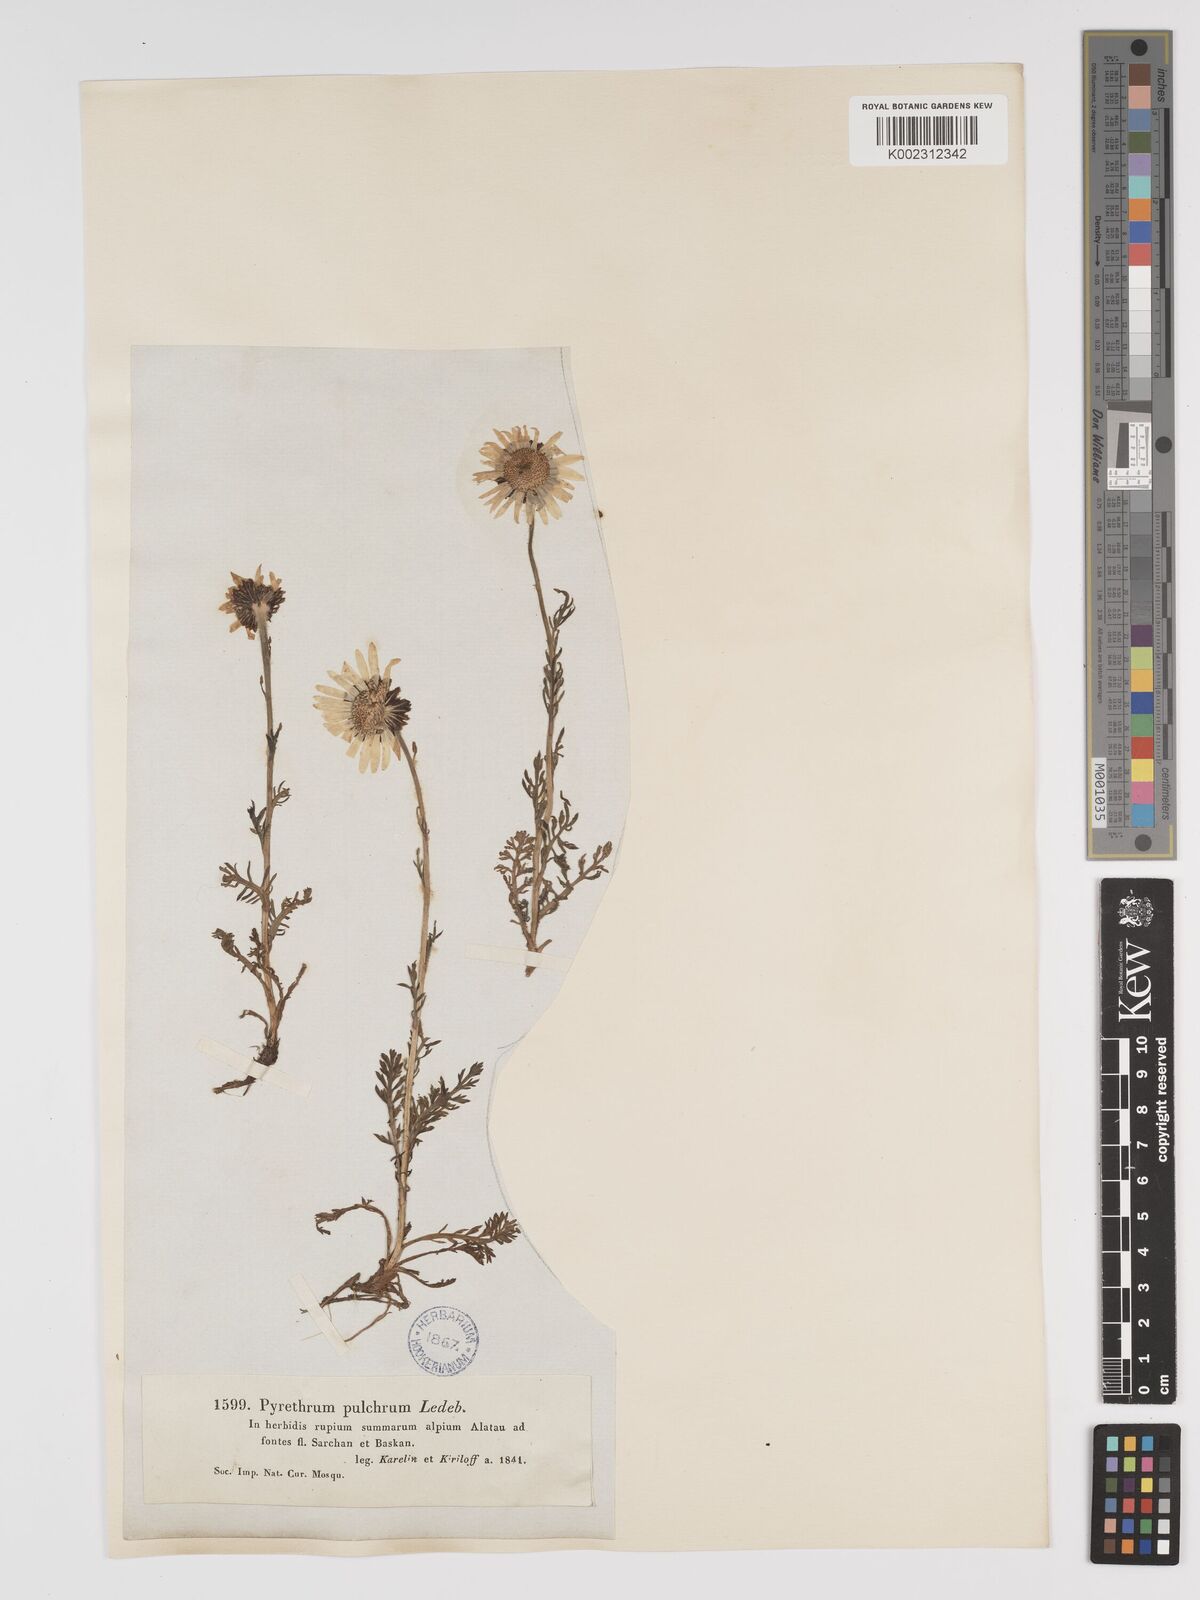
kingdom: Plantae
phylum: Tracheophyta
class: Magnoliopsida
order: Asterales
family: Asteraceae
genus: Tanacetum
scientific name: Tanacetum pulchrum
